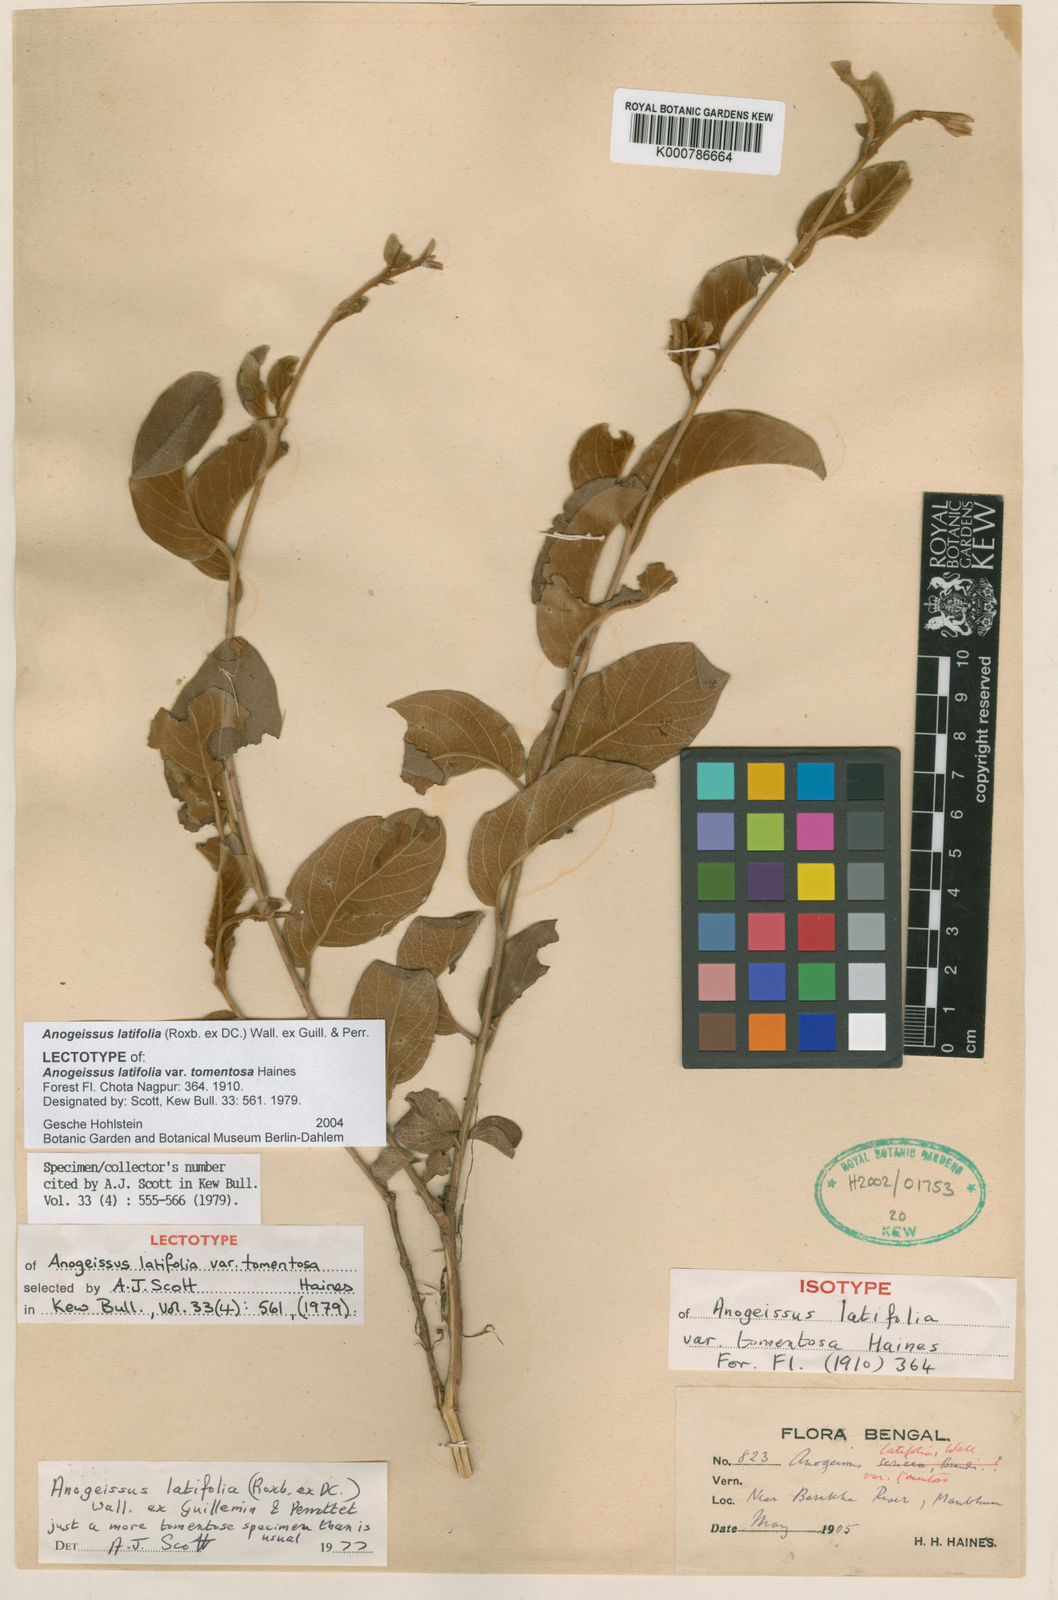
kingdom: Plantae
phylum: Tracheophyta
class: Magnoliopsida
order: Myrtales
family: Combretaceae
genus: Terminalia
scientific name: Terminalia anogeissiana
